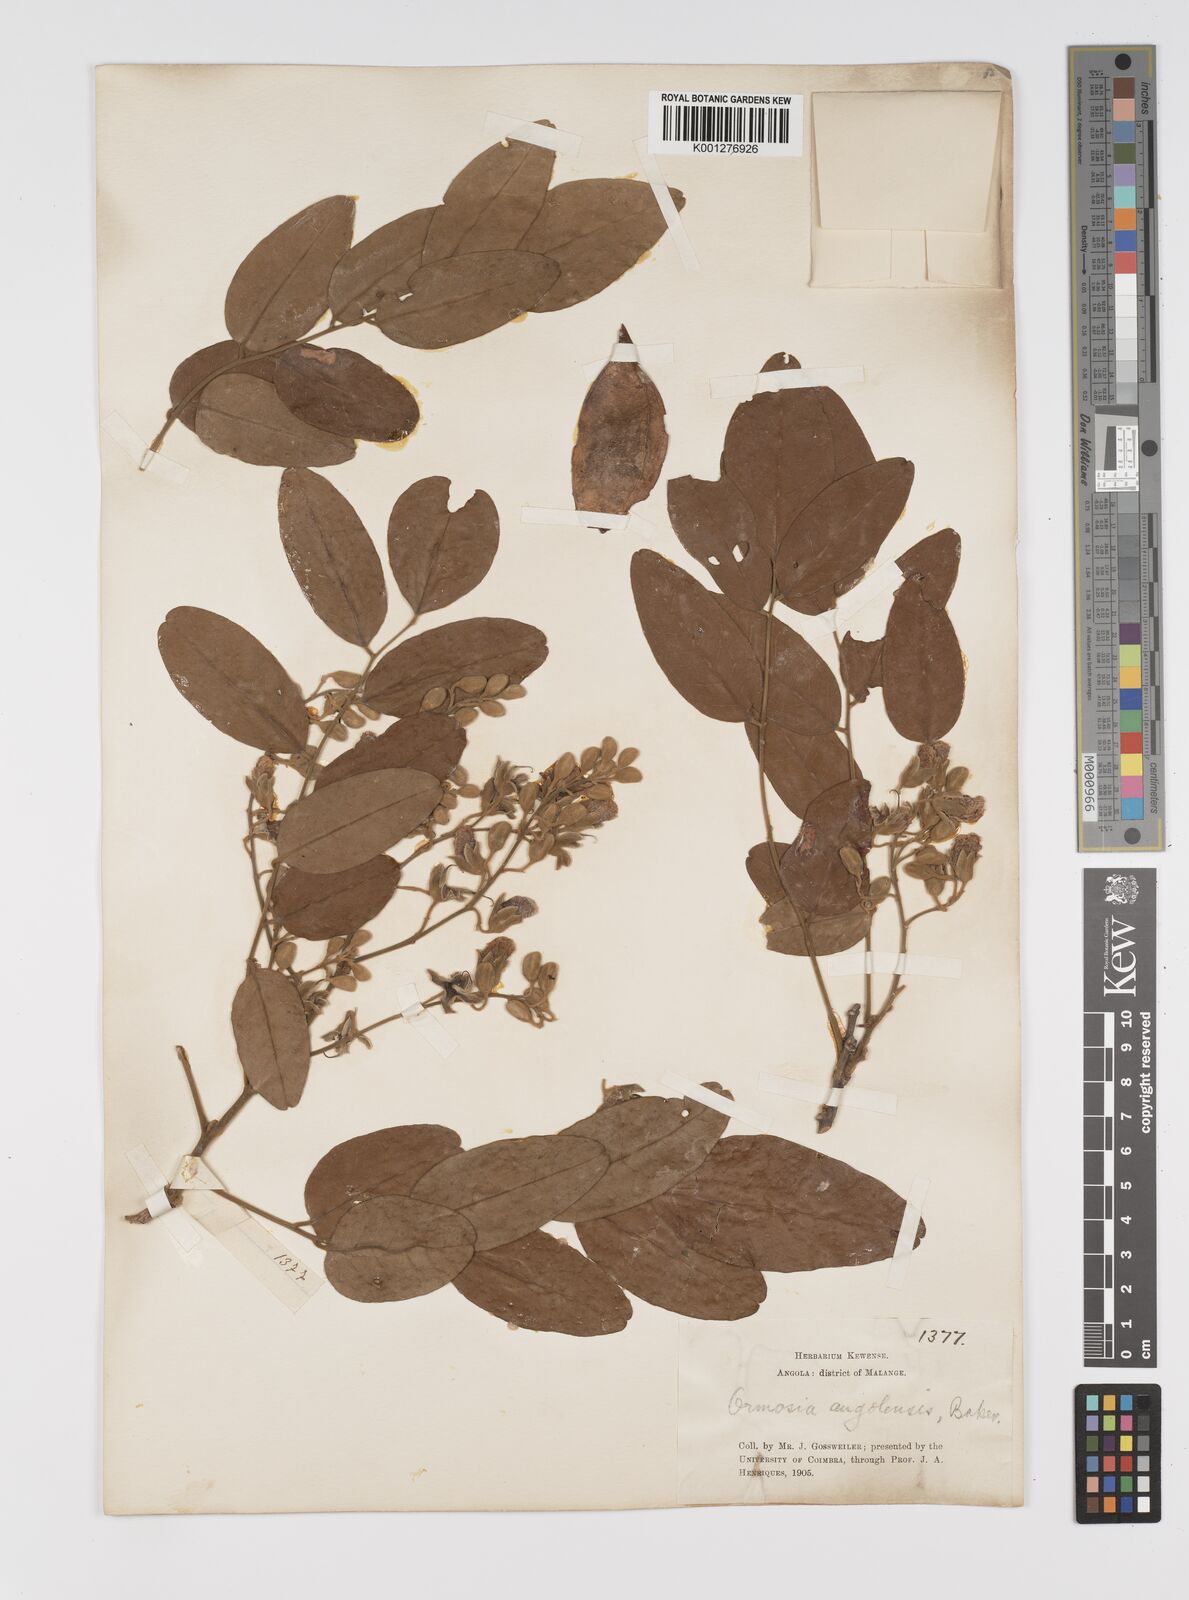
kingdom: Plantae
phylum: Tracheophyta
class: Magnoliopsida
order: Fabales
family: Fabaceae
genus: Pericopsis
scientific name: Pericopsis angolensis
